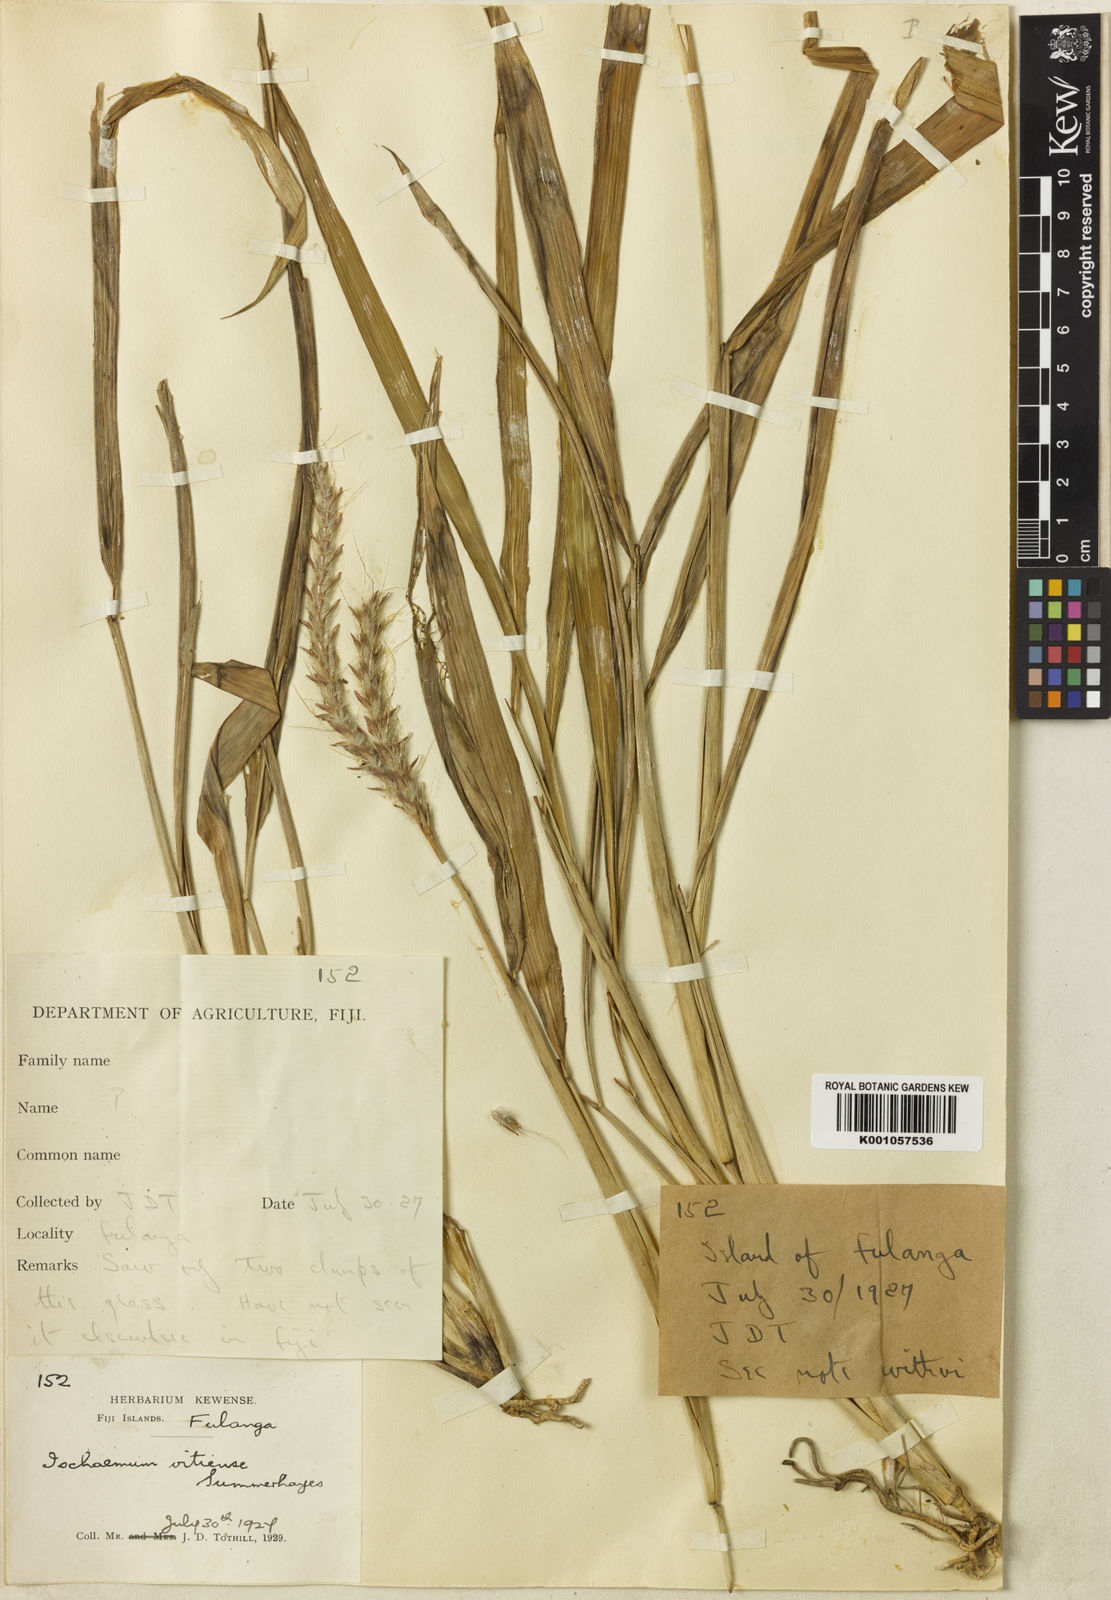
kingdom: Plantae
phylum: Tracheophyta
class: Liliopsida
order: Poales
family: Poaceae
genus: Ischaemum
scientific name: Ischaemum barbatum
